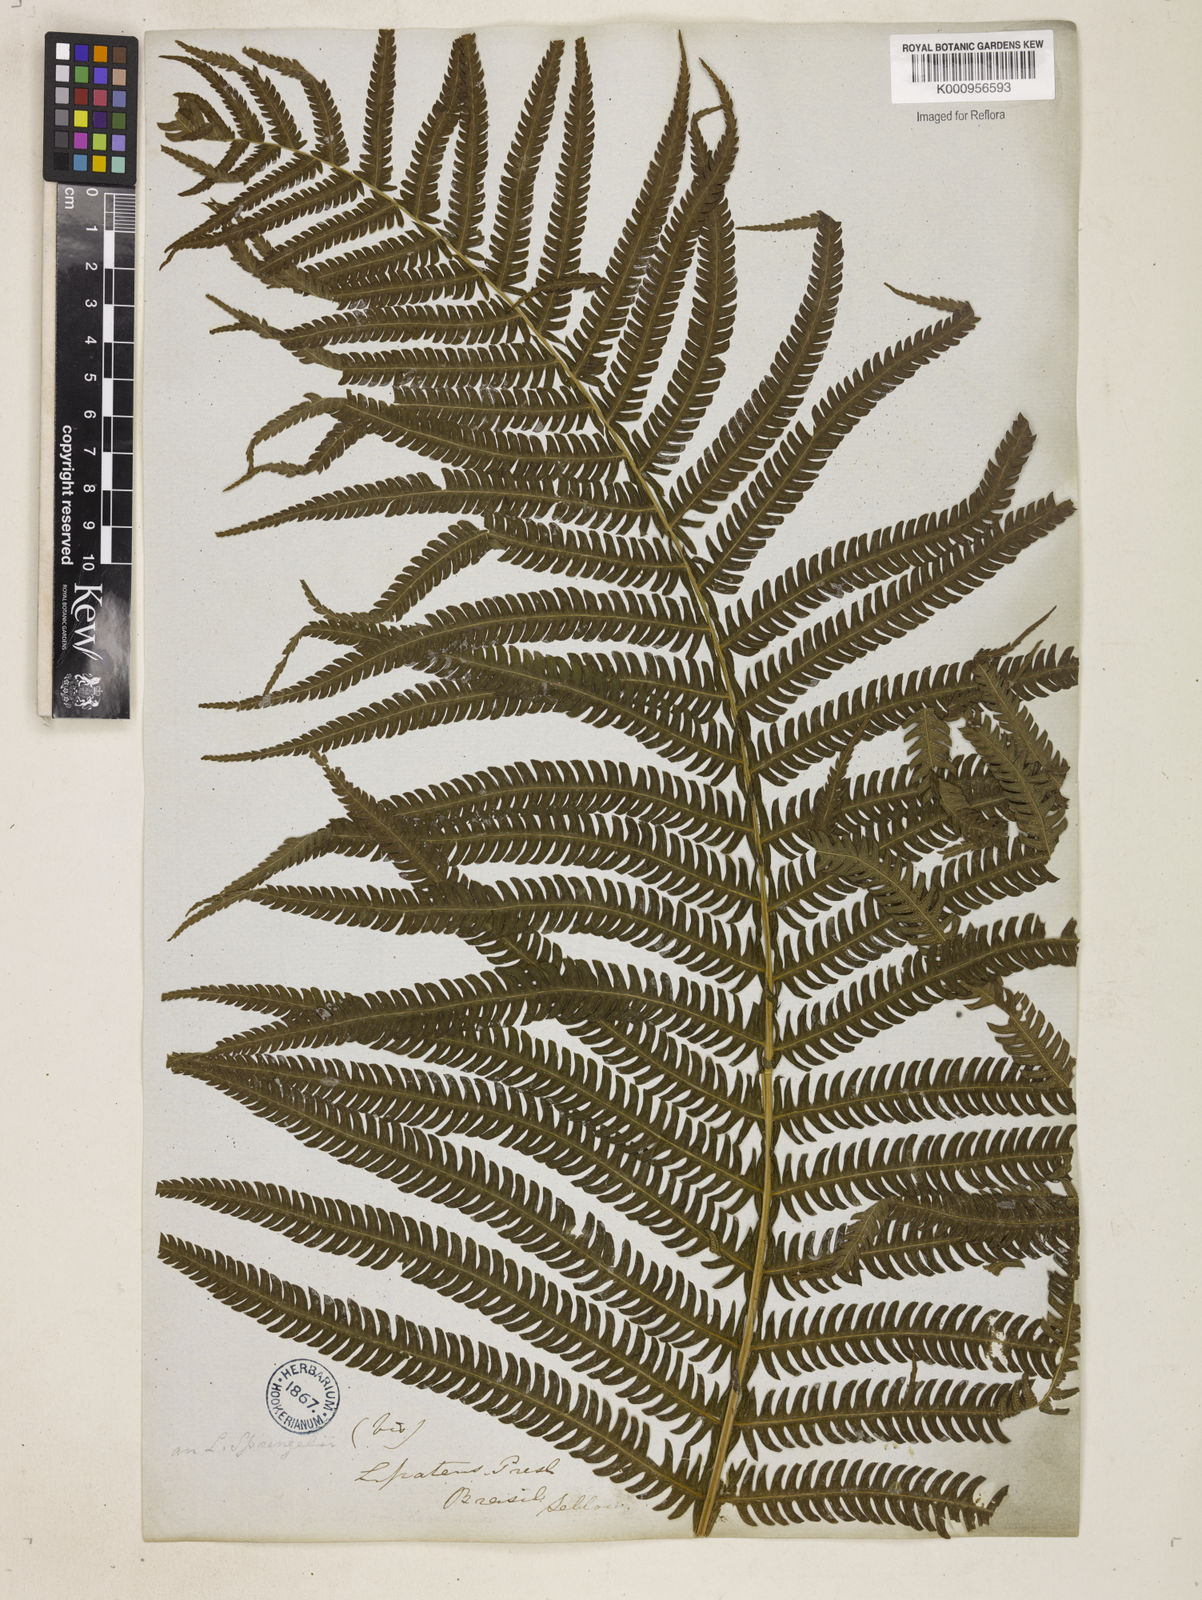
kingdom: Plantae
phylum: Tracheophyta
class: Polypodiopsida
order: Polypodiales
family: Thelypteridaceae
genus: Pelazoneuron
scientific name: Pelazoneuron patens
